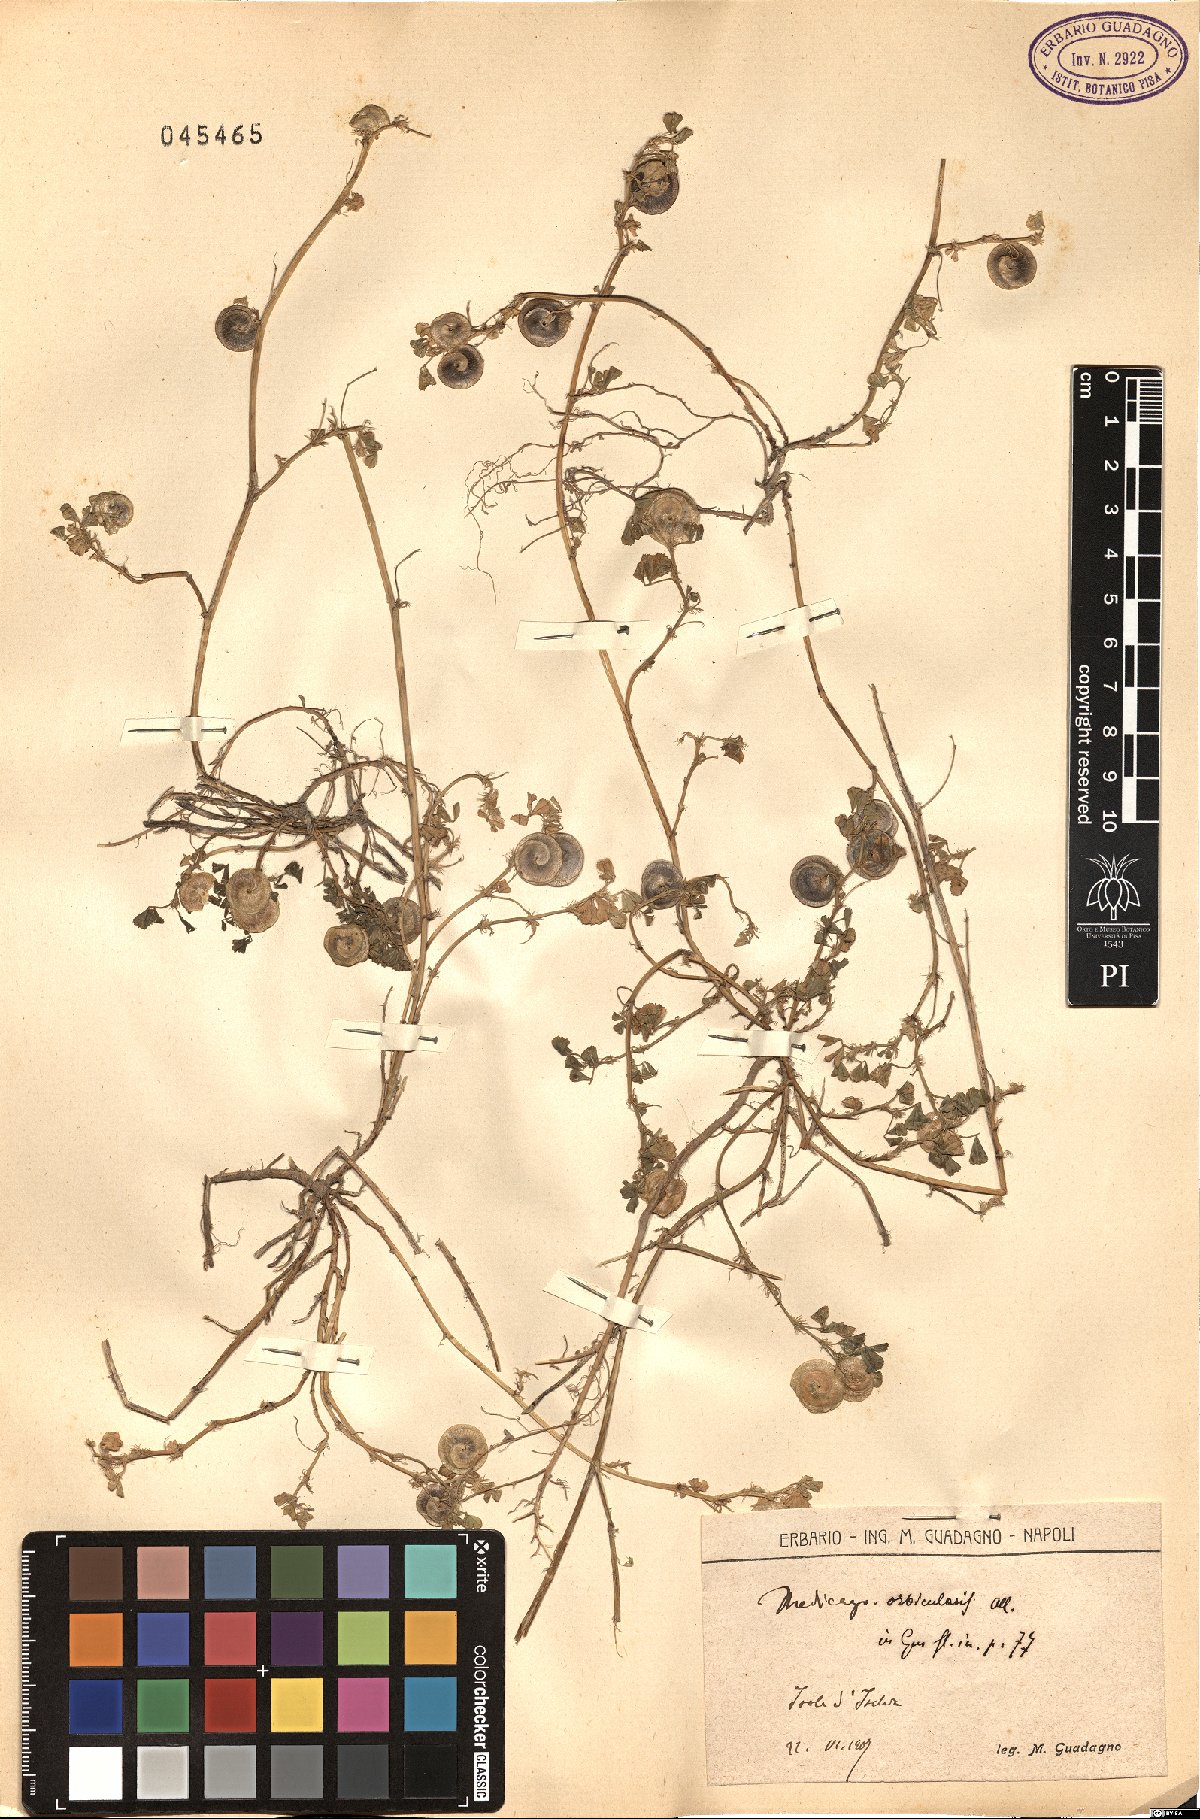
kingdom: Plantae
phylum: Tracheophyta
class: Magnoliopsida
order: Fabales
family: Fabaceae
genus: Medicago
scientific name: Medicago orbicularis
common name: Button medick
